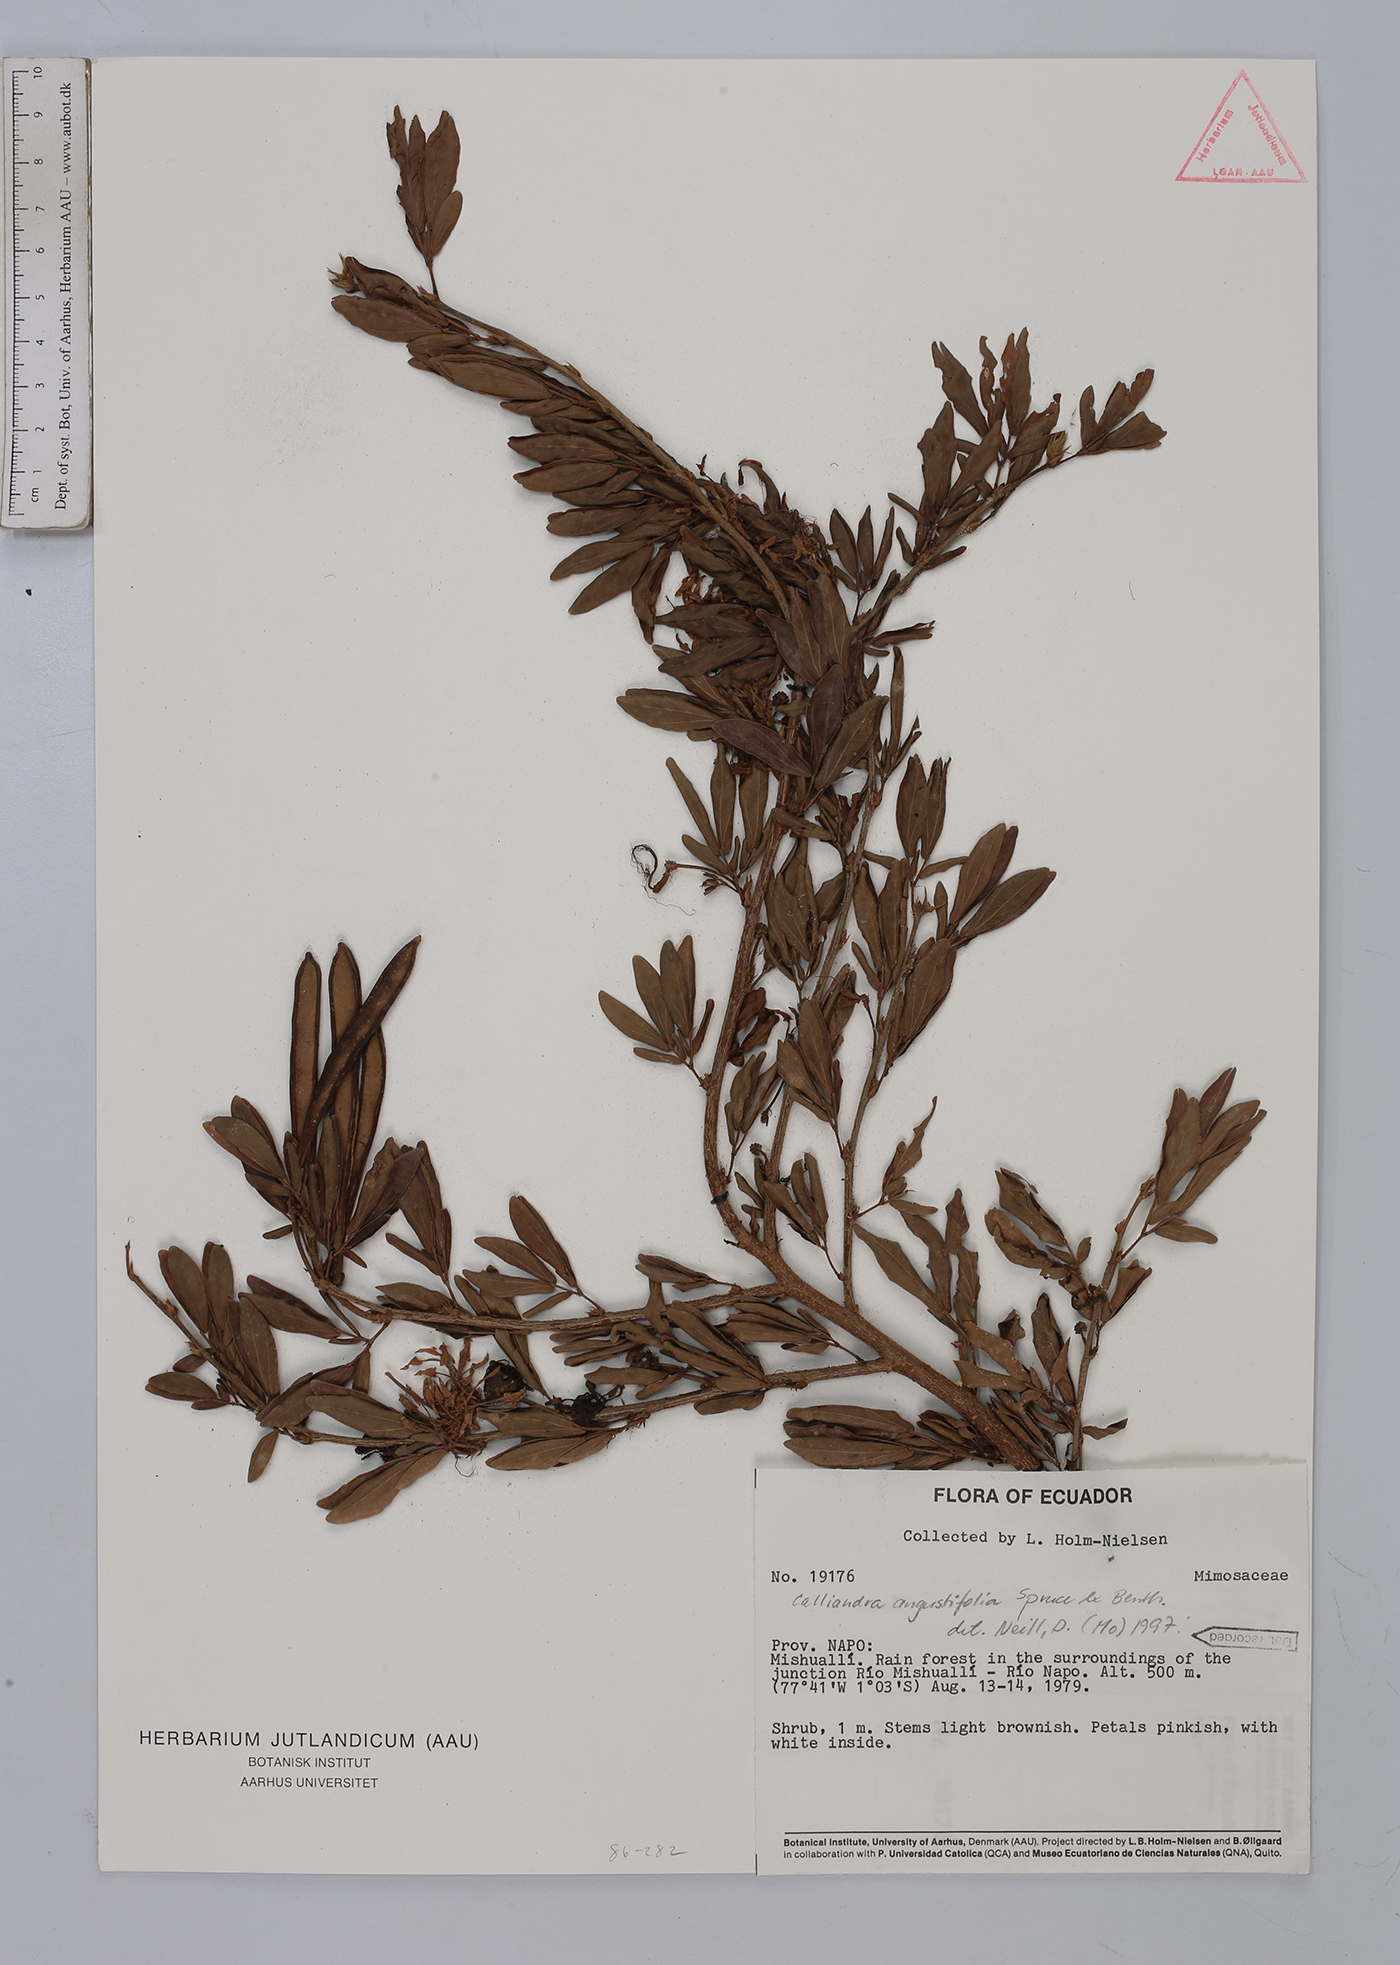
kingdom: Plantae
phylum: Tracheophyta
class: Magnoliopsida
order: Fabales
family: Fabaceae
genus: Calliandra
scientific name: Calliandra angustifolia
